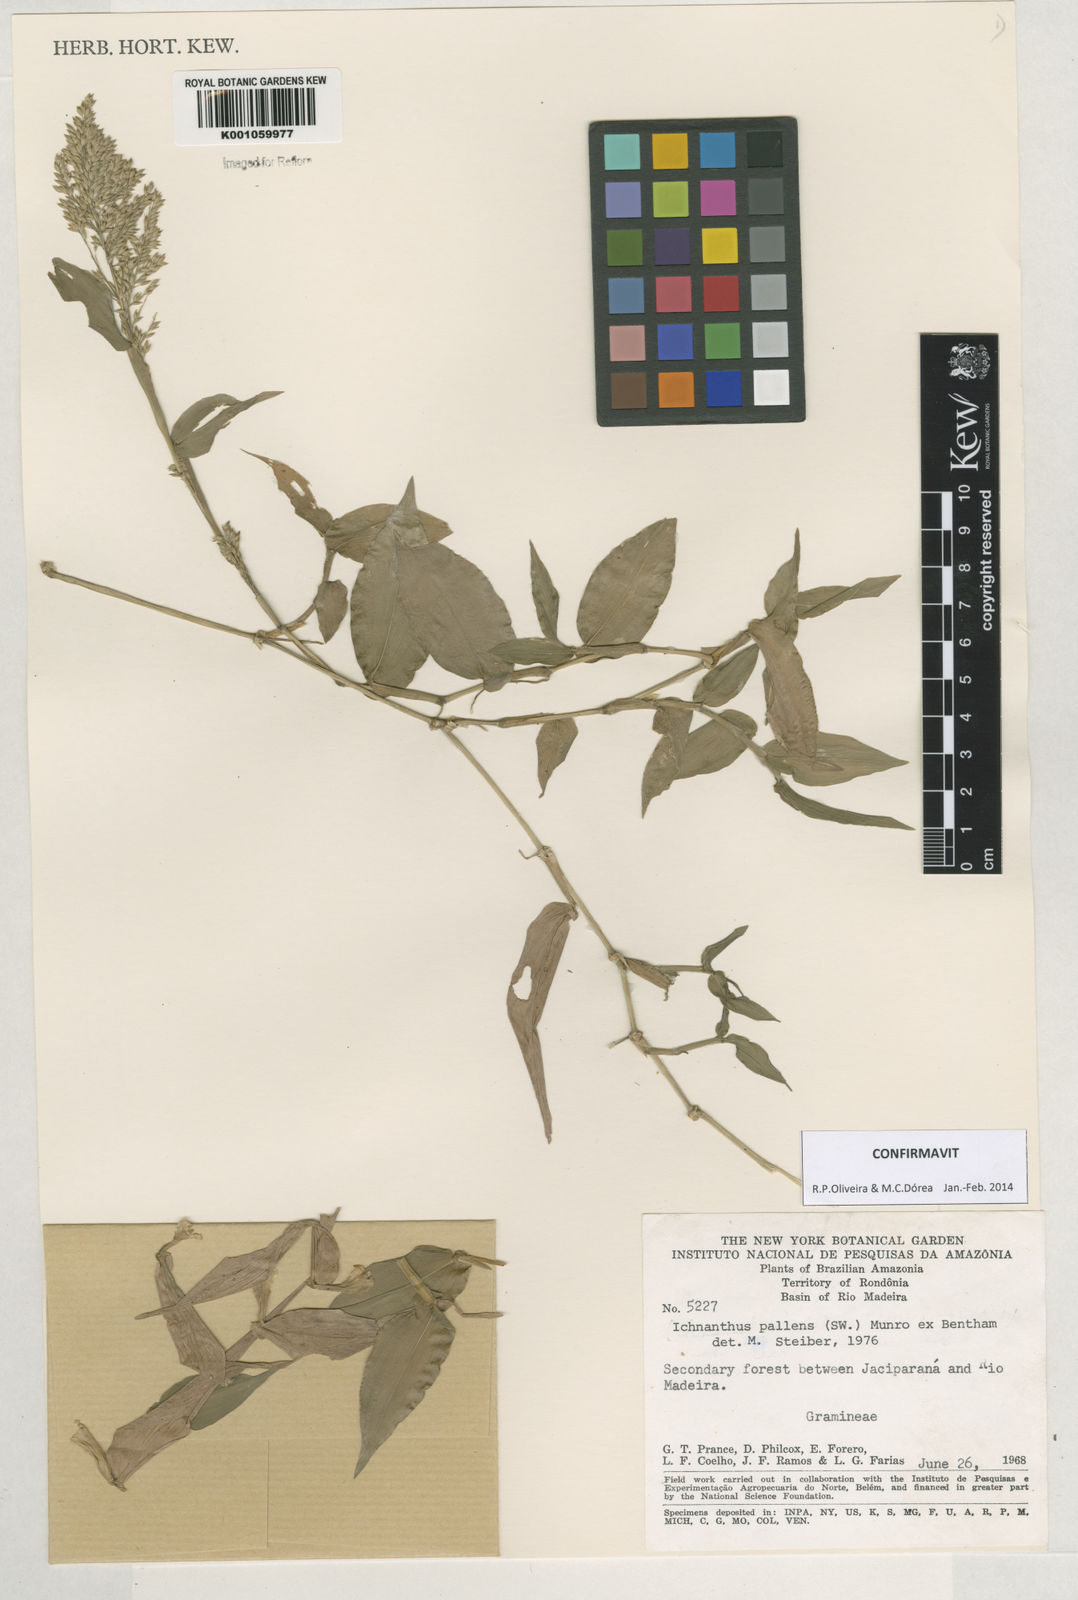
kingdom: Plantae
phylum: Tracheophyta
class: Liliopsida
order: Poales
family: Poaceae
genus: Ichnanthus
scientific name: Ichnanthus pallens
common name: Water grass
